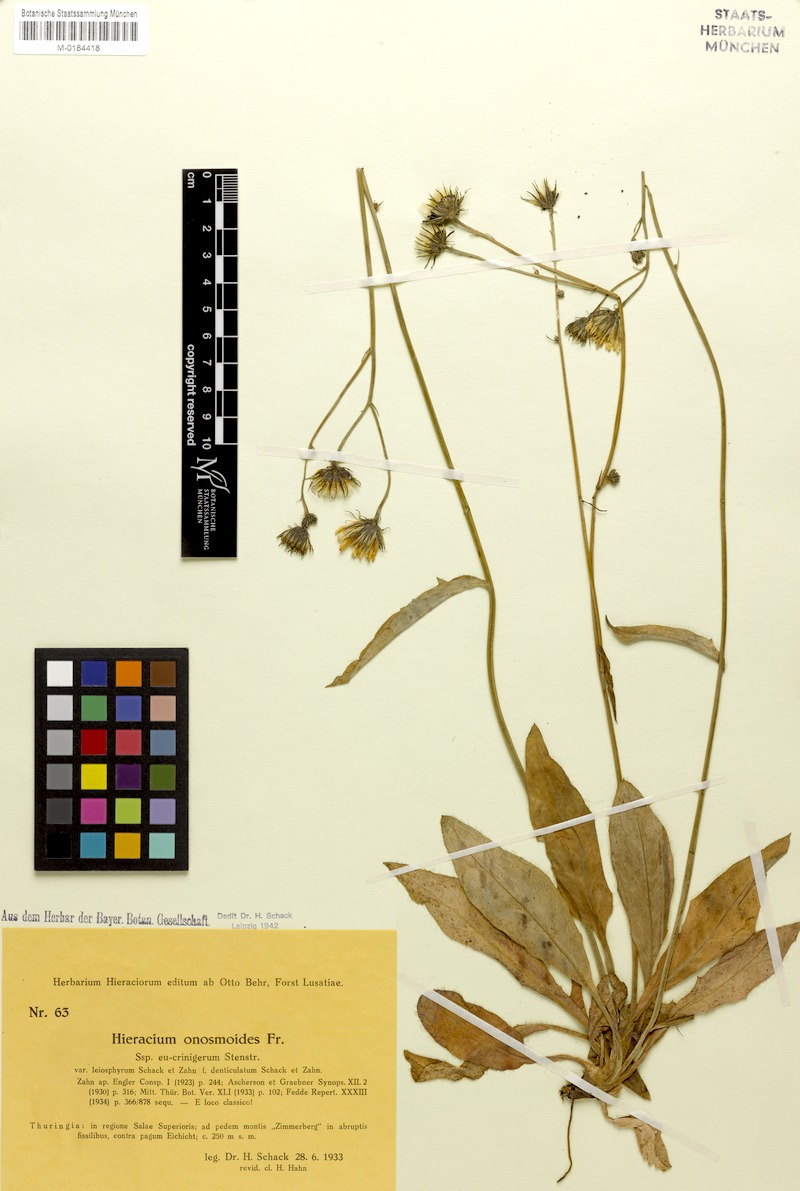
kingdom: Plantae
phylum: Tracheophyta
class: Magnoliopsida
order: Asterales
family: Asteraceae
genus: Hieracium
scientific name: Hieracium onosmoides
